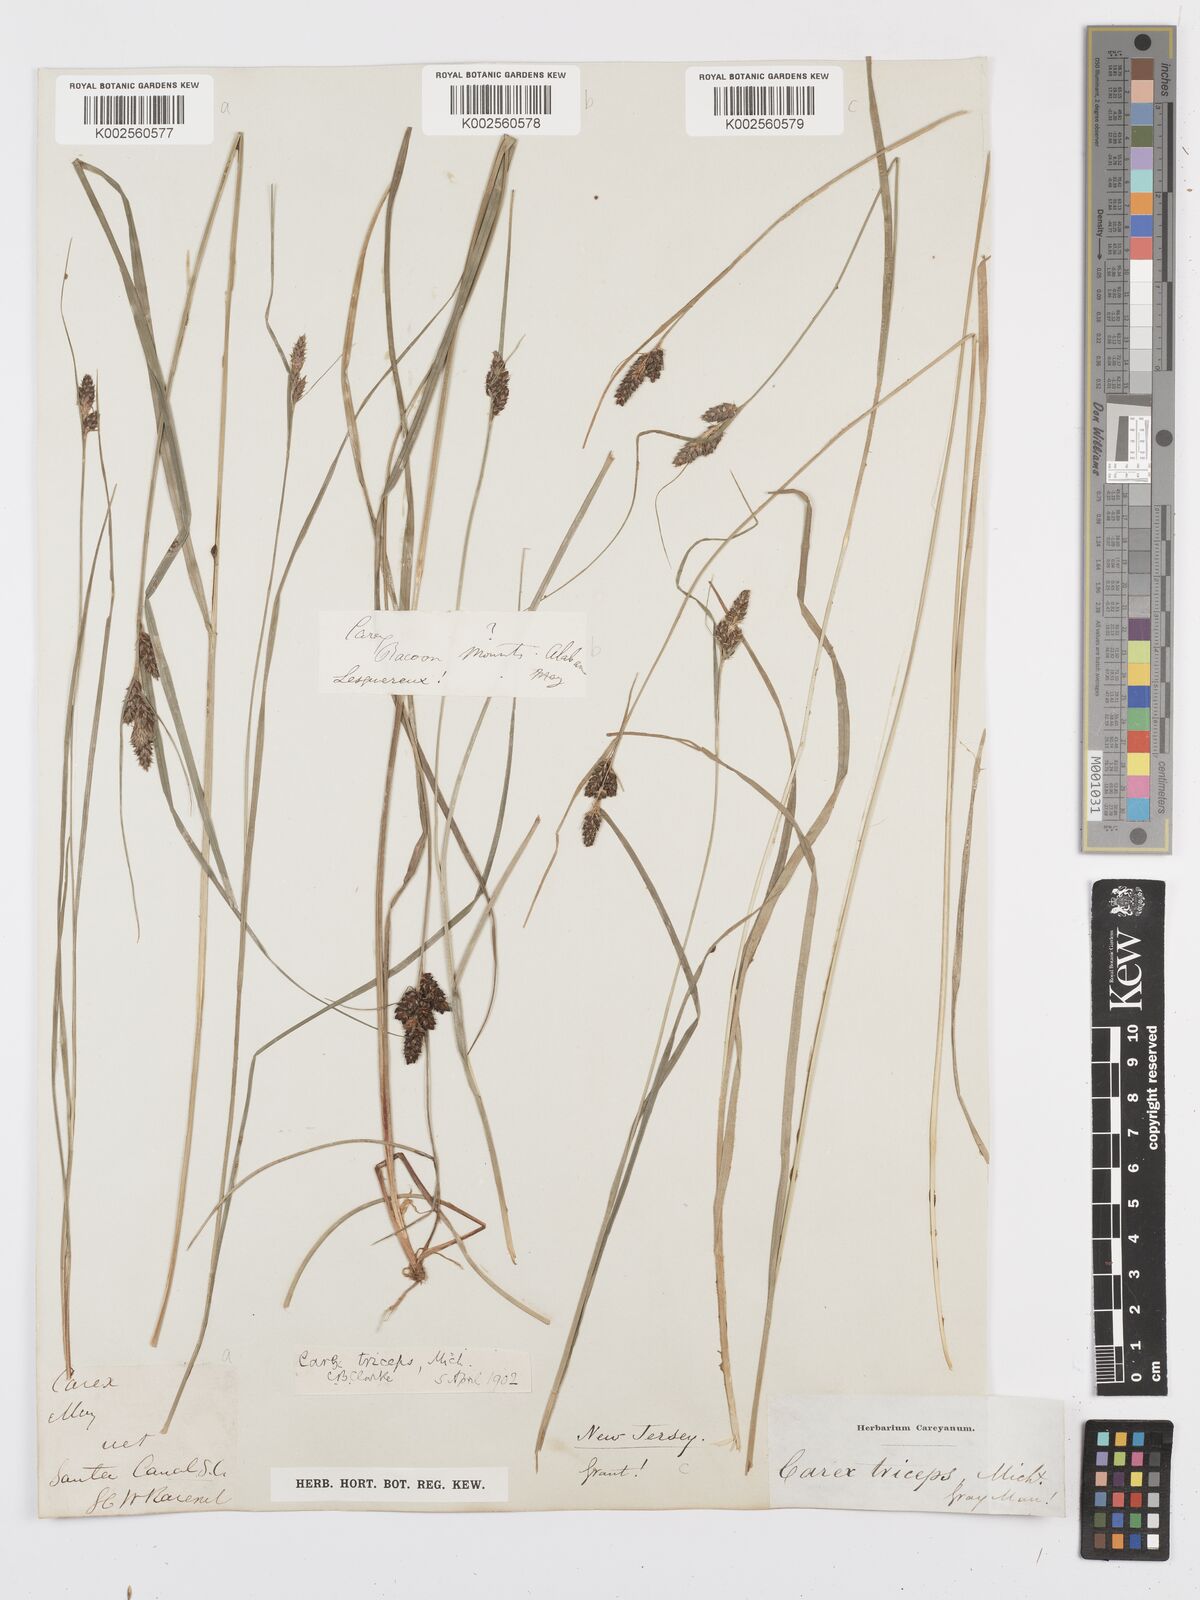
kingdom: Plantae
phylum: Tracheophyta
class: Liliopsida
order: Poales
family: Cyperaceae
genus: Carex
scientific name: Carex complanata
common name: Hirsute sedge
